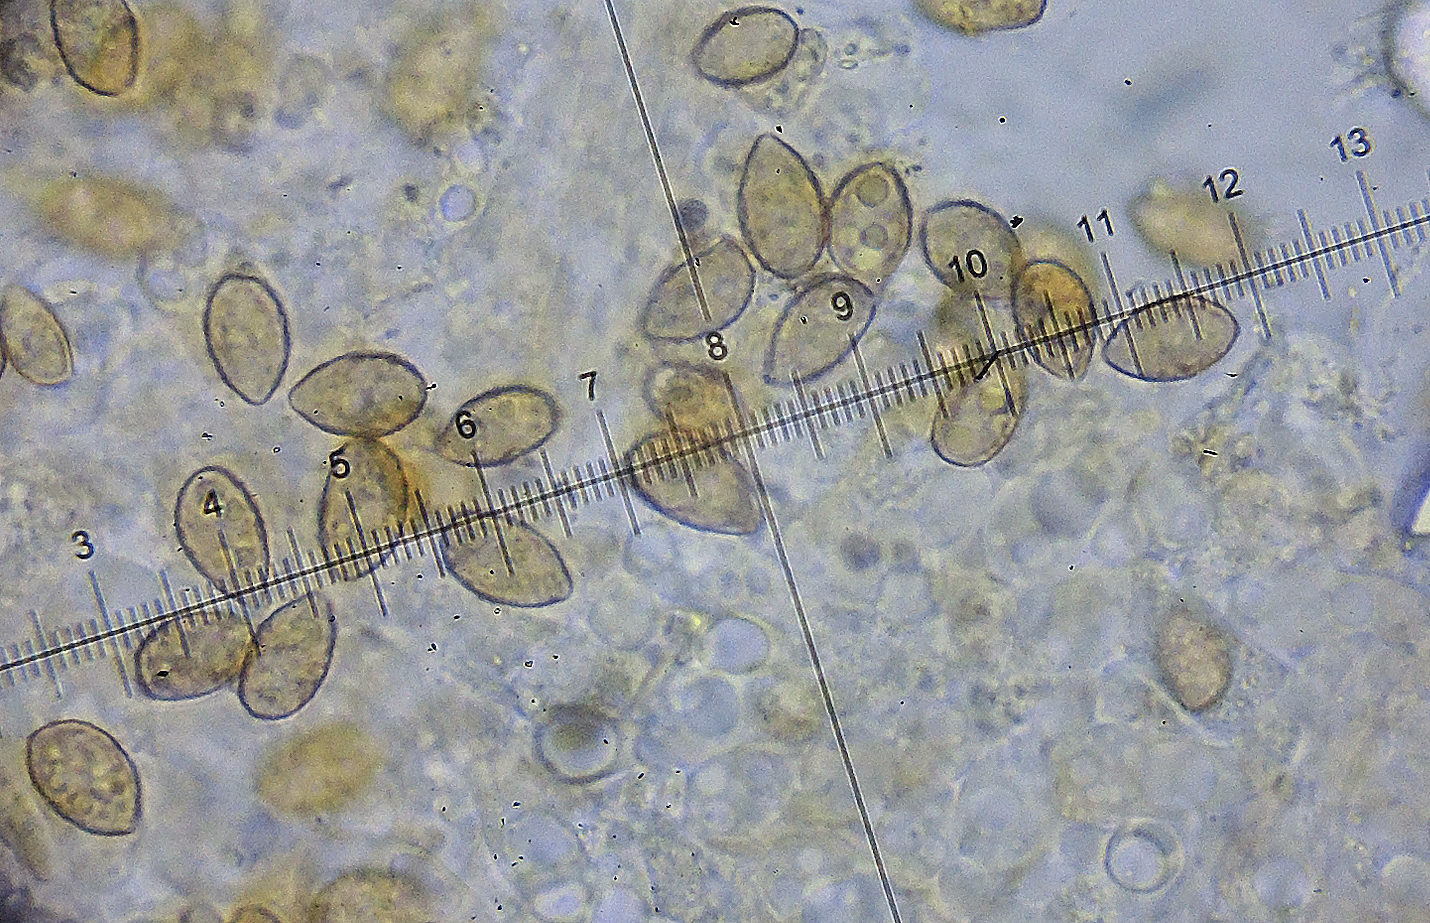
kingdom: Fungi
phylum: Basidiomycota
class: Agaricomycetes
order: Agaricales
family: Hymenogastraceae
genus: Galerina
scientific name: Galerina atkinsoniana
